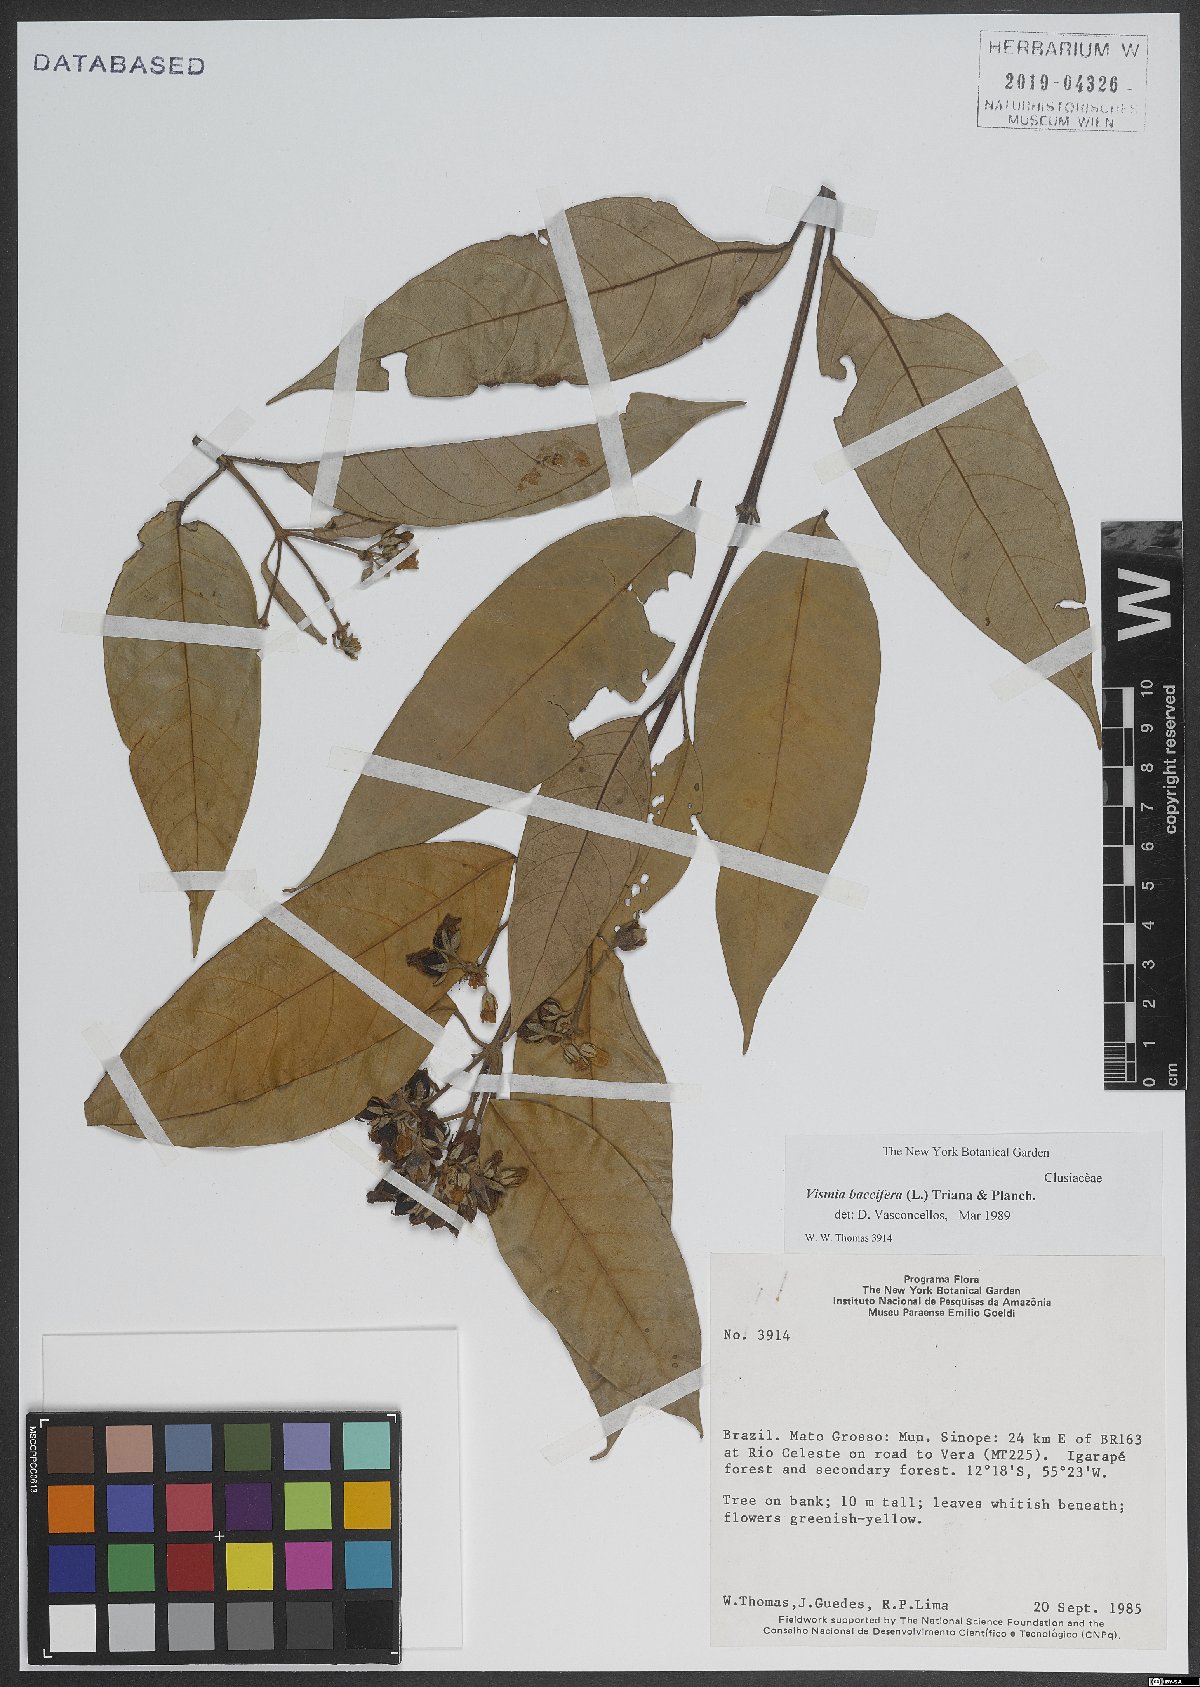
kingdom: Plantae
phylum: Tracheophyta
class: Magnoliopsida
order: Malpighiales
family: Hypericaceae
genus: Vismia
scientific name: Vismia baccifera
